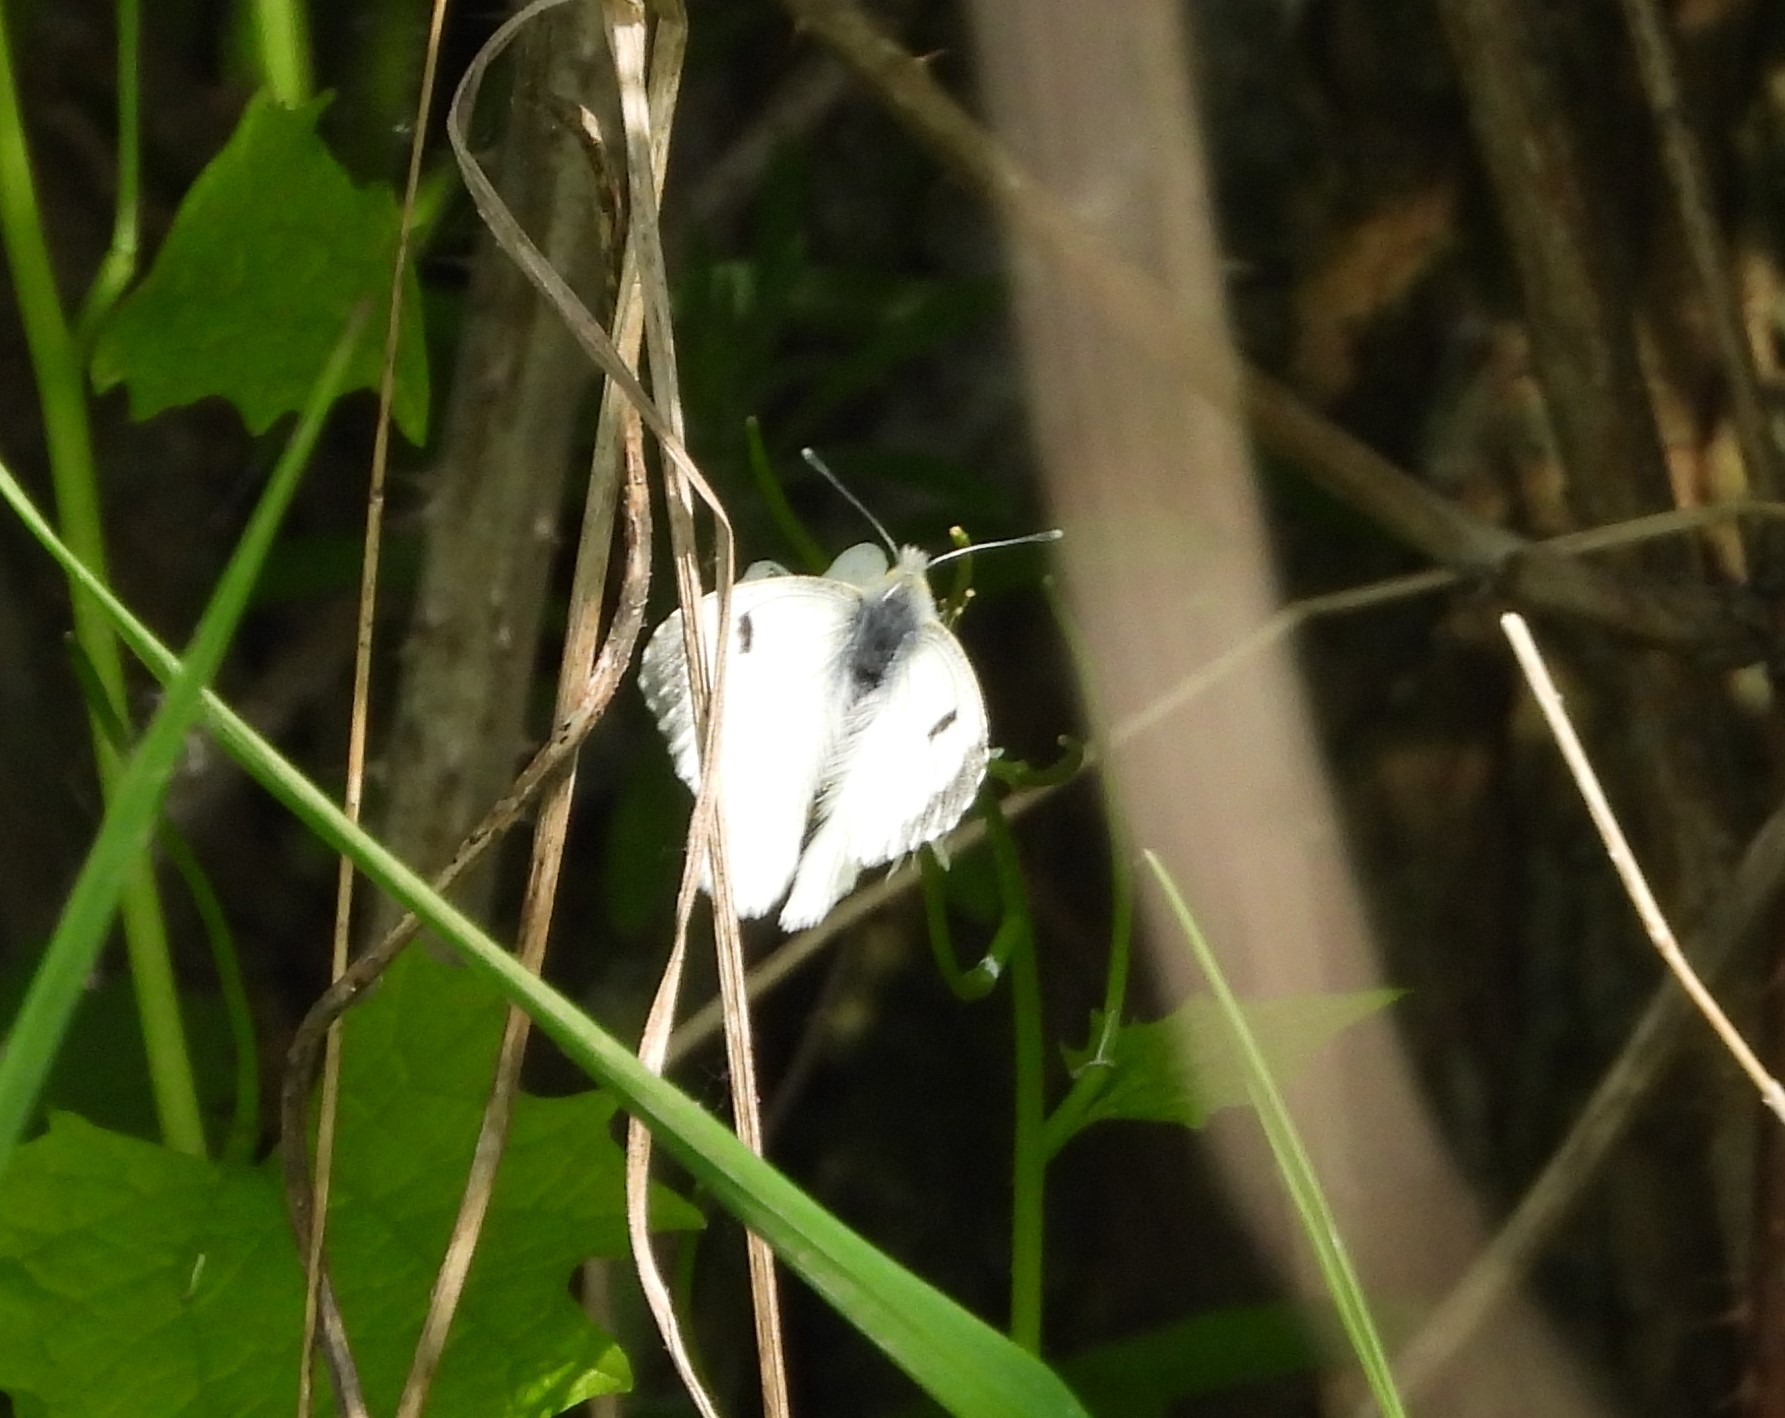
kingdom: Animalia
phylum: Arthropoda
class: Insecta
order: Lepidoptera
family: Pieridae
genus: Anthocharis
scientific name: Anthocharis cardamines
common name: Aurora
